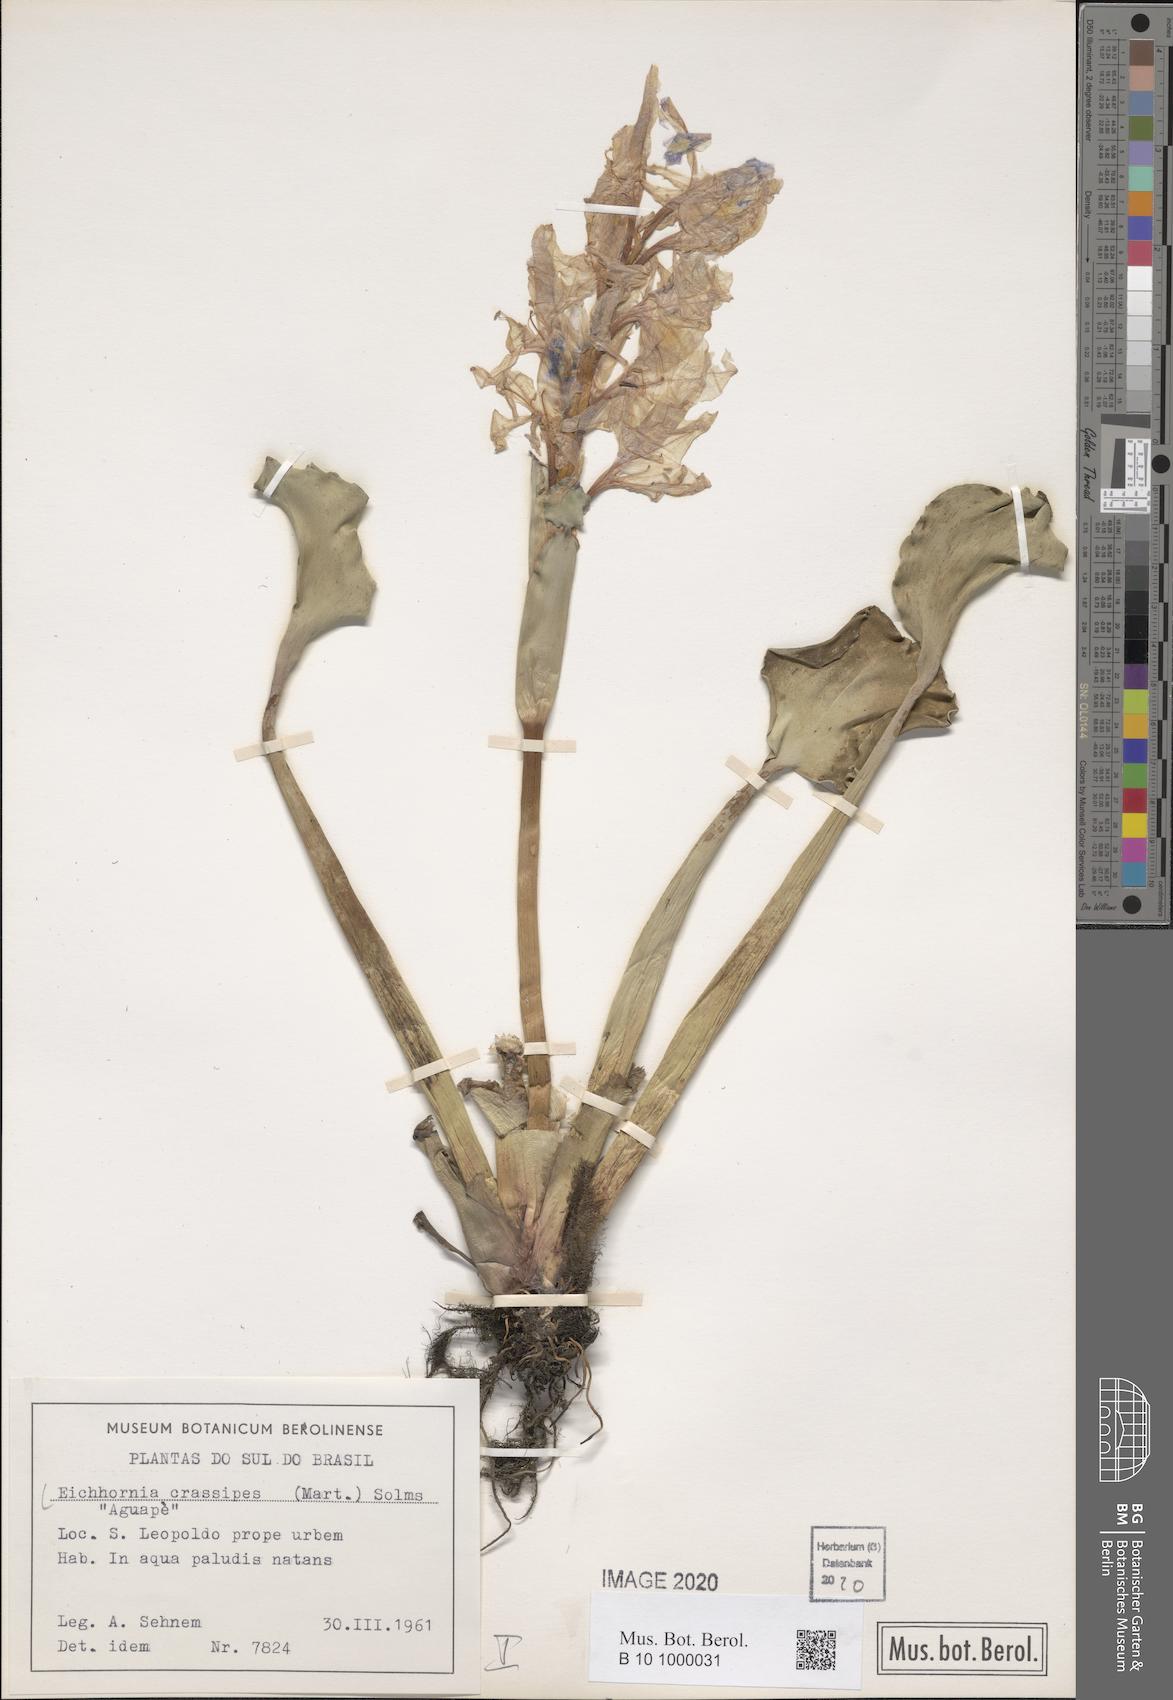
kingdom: Plantae
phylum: Tracheophyta
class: Liliopsida
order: Commelinales
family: Pontederiaceae
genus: Pontederia
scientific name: Pontederia crassipes
